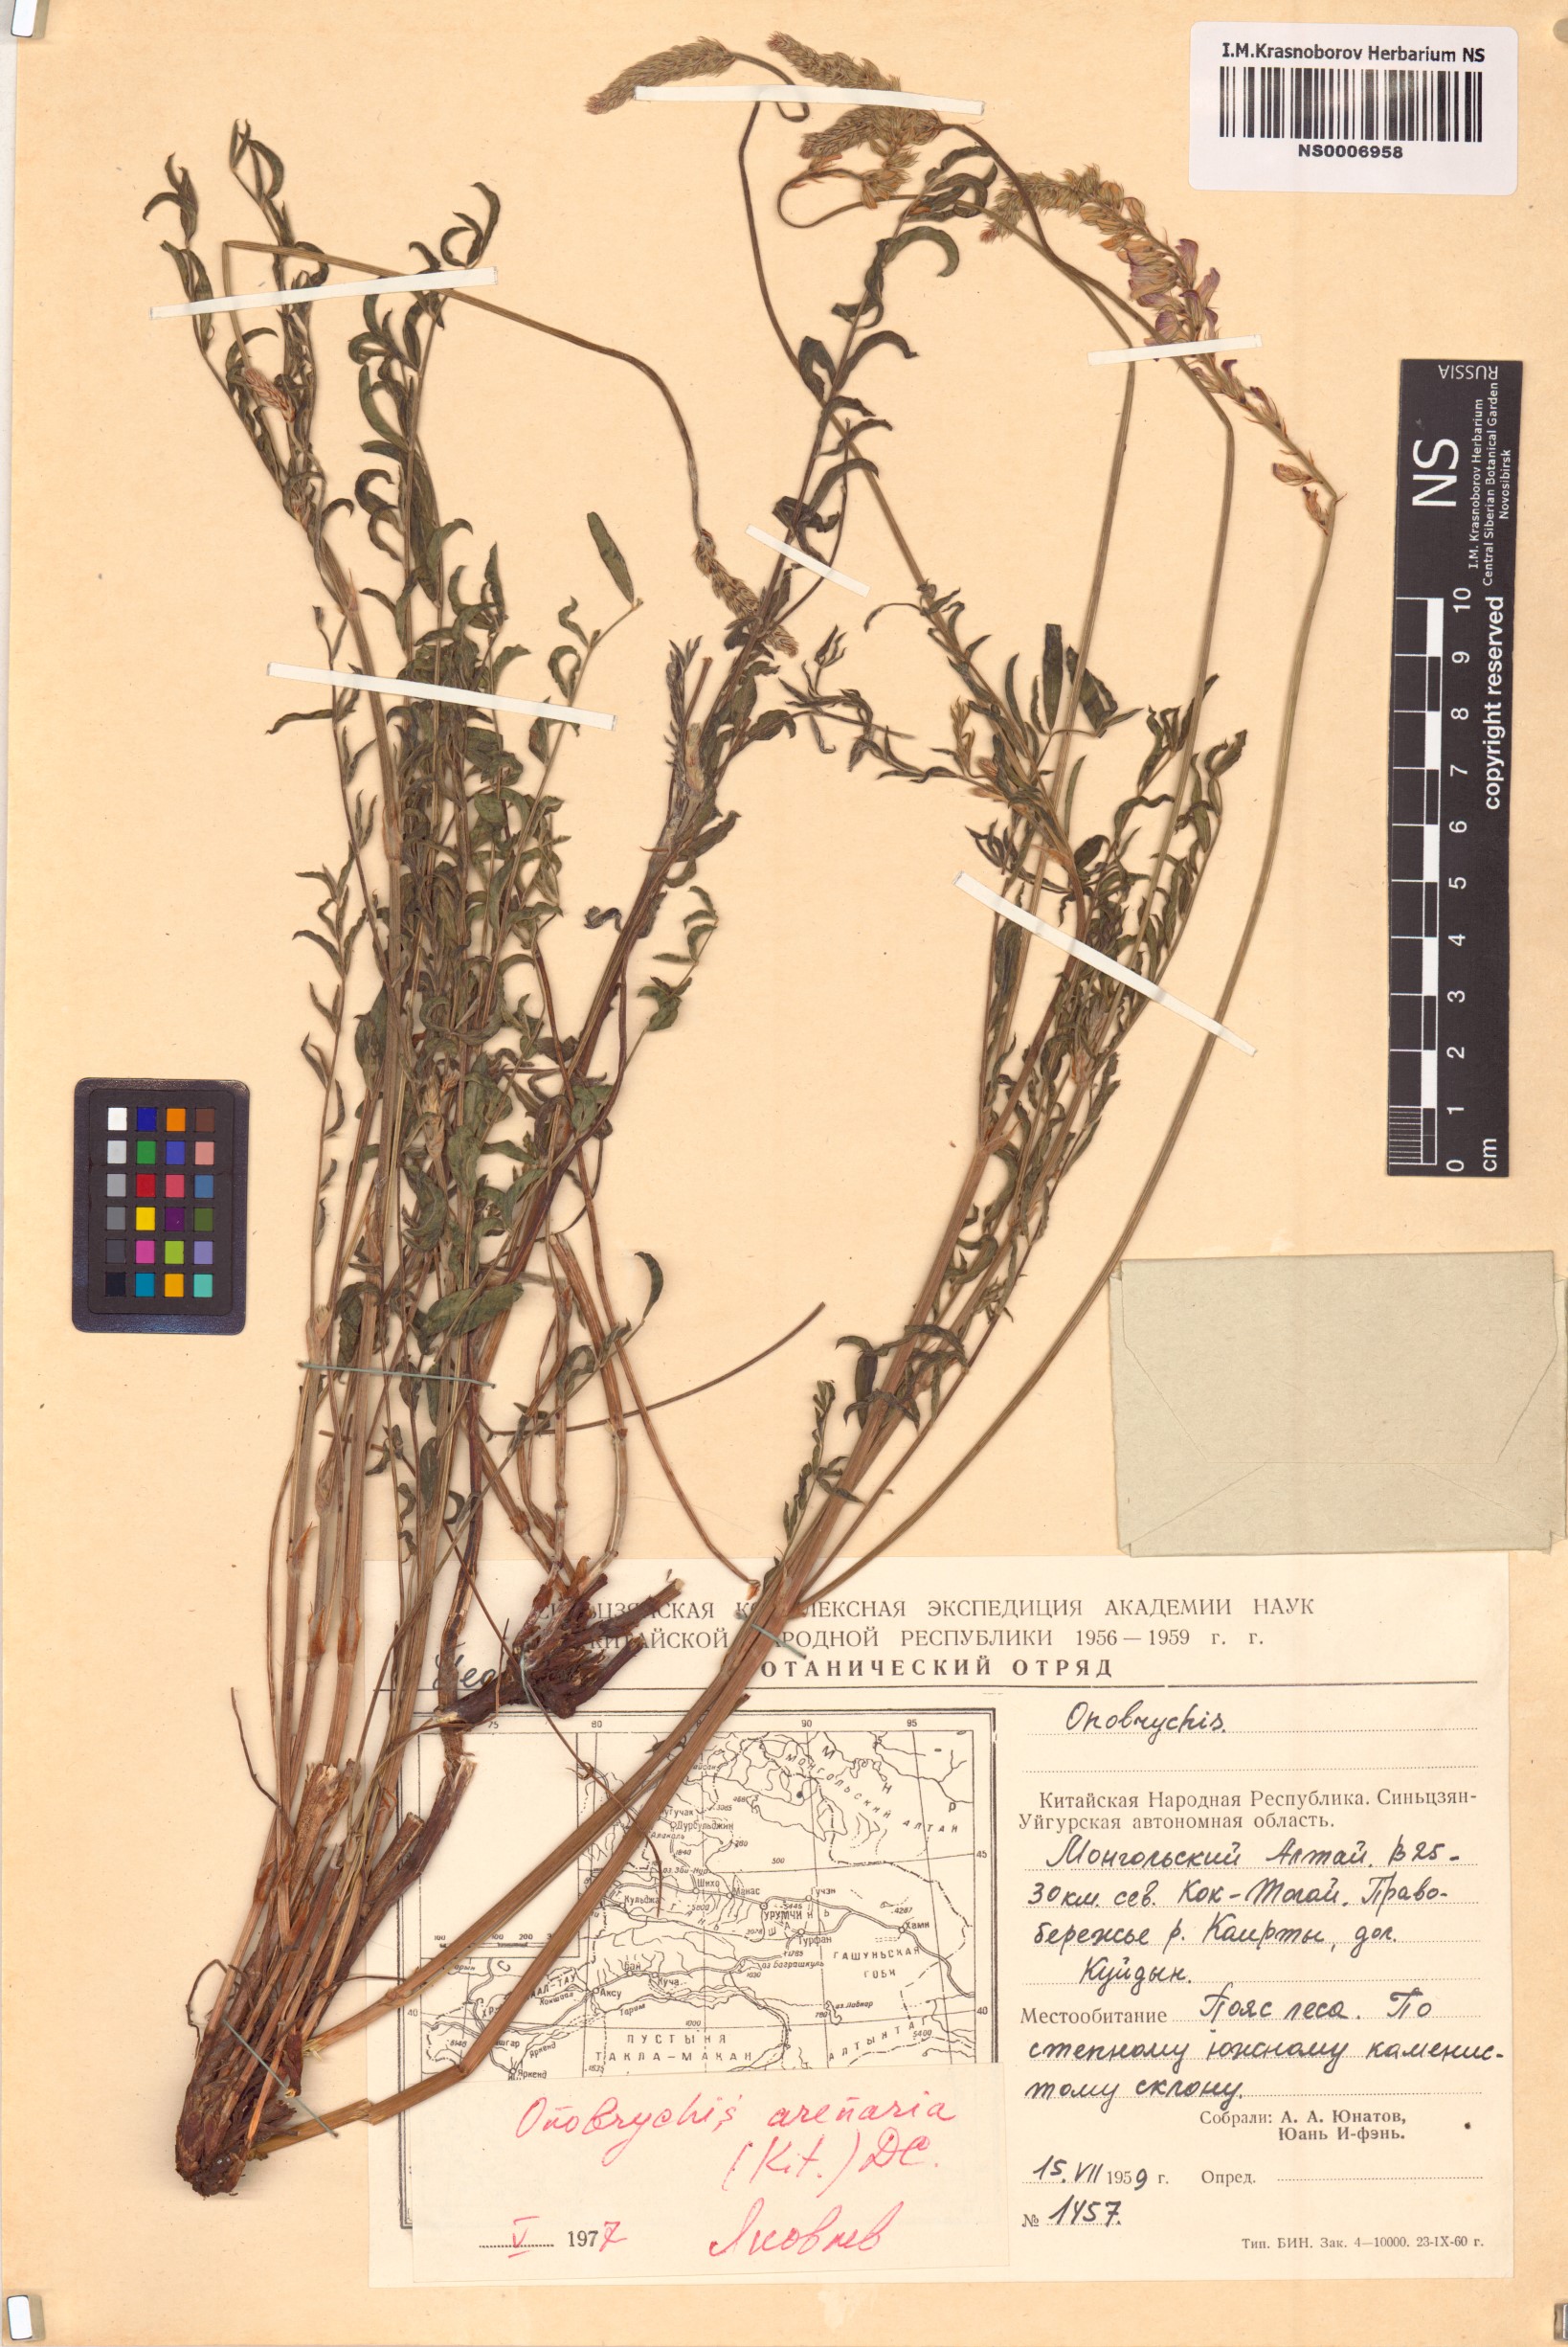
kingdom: Plantae
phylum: Tracheophyta
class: Magnoliopsida
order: Fabales
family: Fabaceae
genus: Onobrychis
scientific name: Onobrychis arenaria
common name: Sand esparcet
